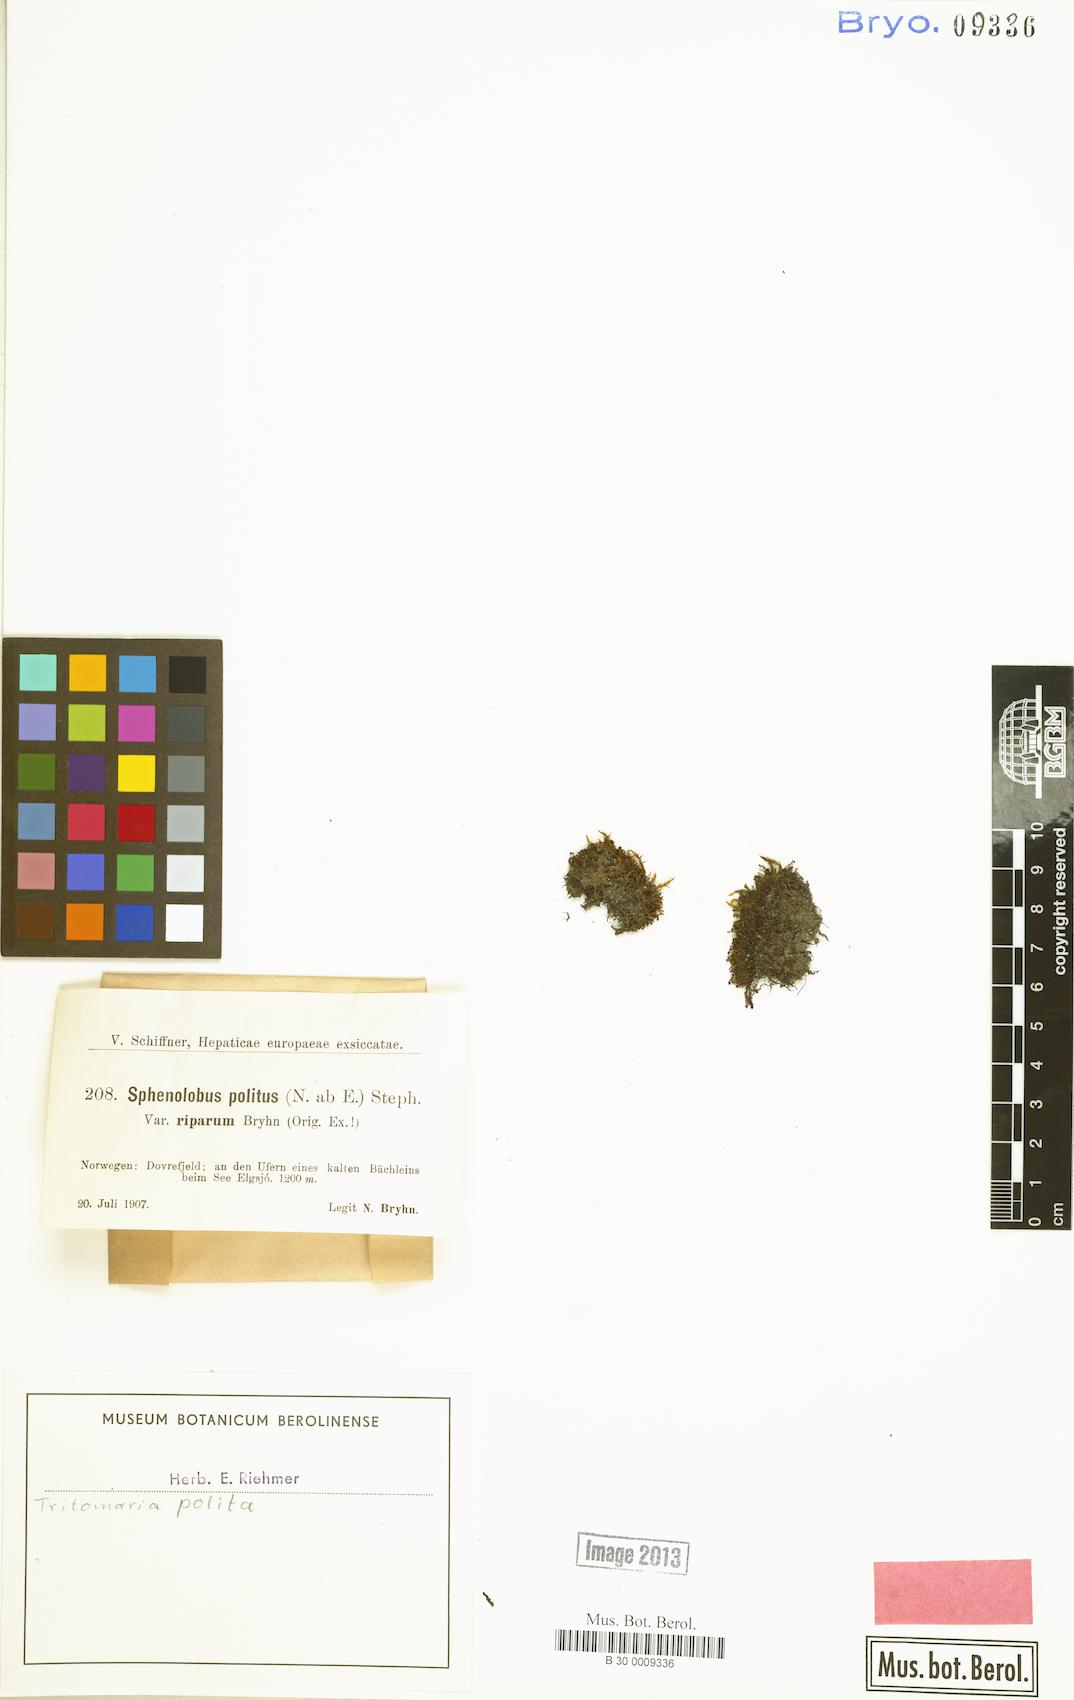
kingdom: Plantae
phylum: Marchantiophyta
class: Jungermanniopsida
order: Jungermanniales
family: Scapaniaceae
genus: Saccobasis
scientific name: Saccobasis polita
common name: Flush notchwort
